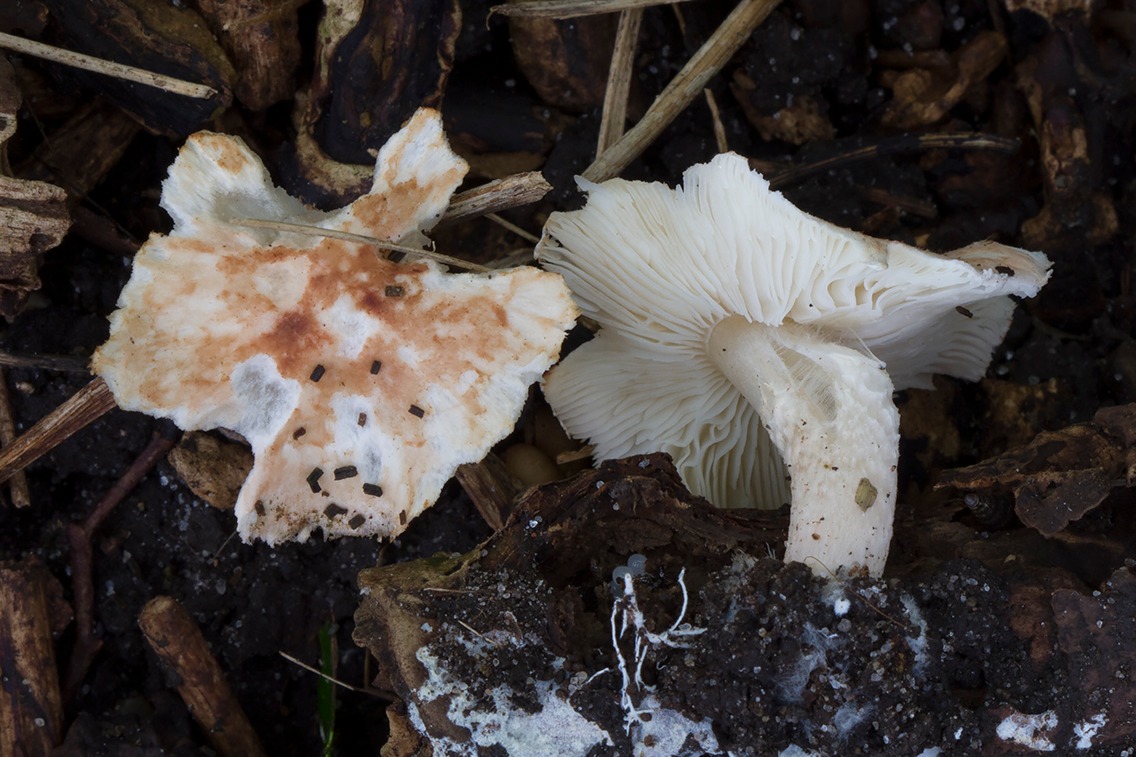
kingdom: Fungi
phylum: Basidiomycota
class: Agaricomycetes
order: Agaricales
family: Agaricaceae
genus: Lepiota
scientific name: Lepiota subincarnata
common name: kødfarvet parasolhat
